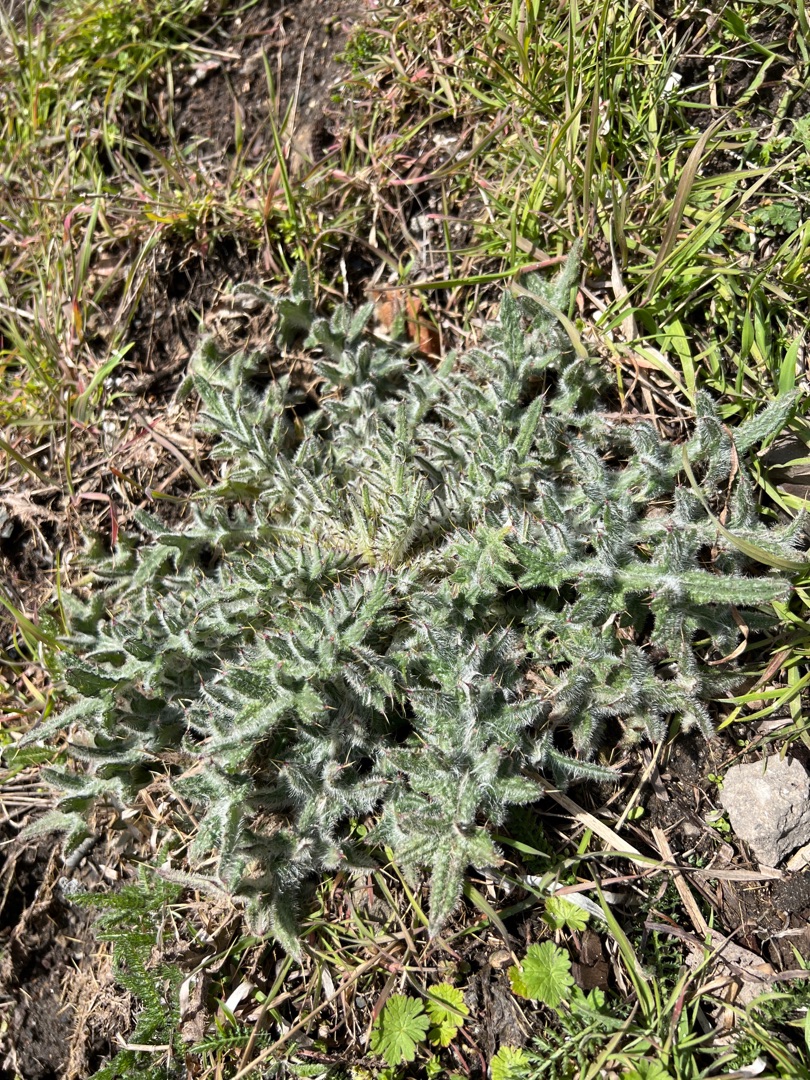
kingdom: Plantae
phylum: Tracheophyta
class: Magnoliopsida
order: Asterales
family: Asteraceae
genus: Cirsium
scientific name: Cirsium vulgare
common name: Horse-tidsel
